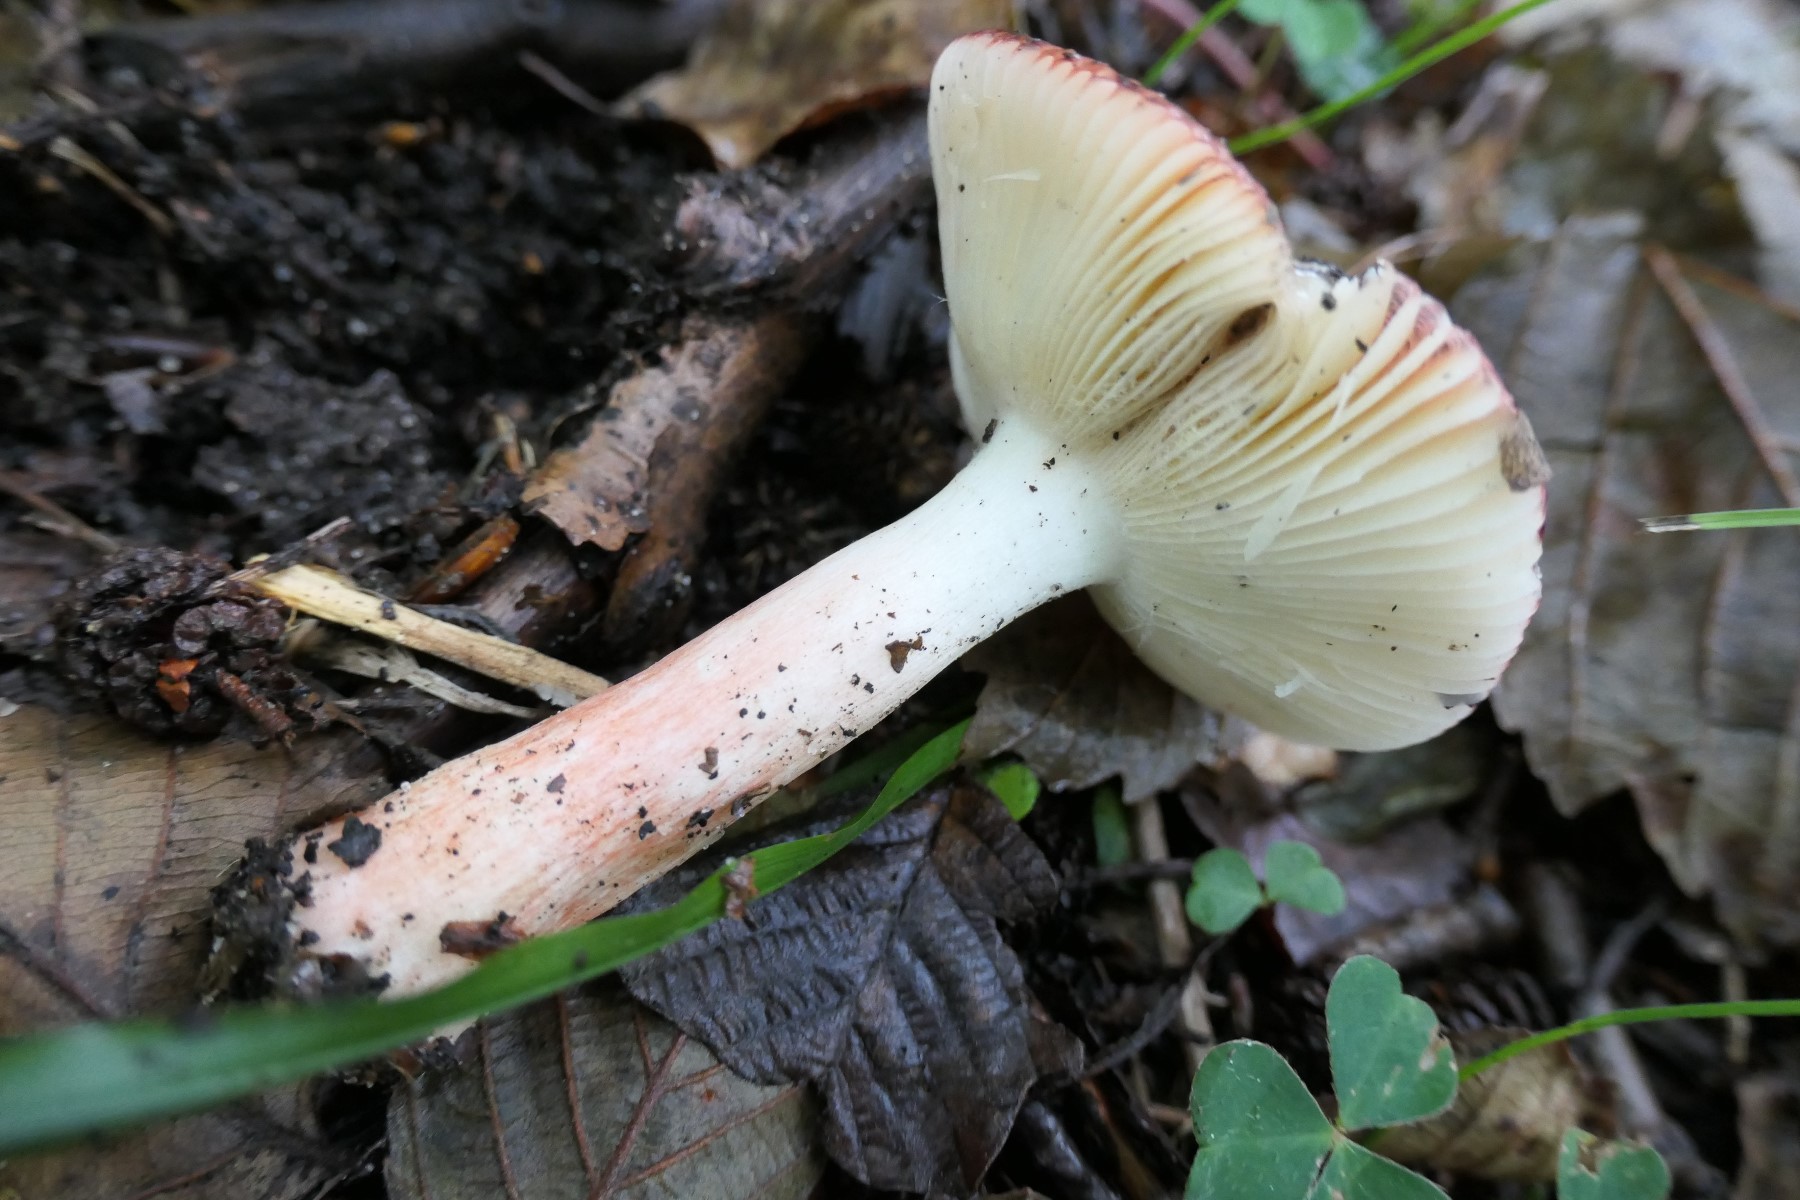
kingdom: Fungi
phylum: Basidiomycota
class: Agaricomycetes
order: Russulales
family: Russulaceae
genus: Russula
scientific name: Russula nitida
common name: året skørhat
